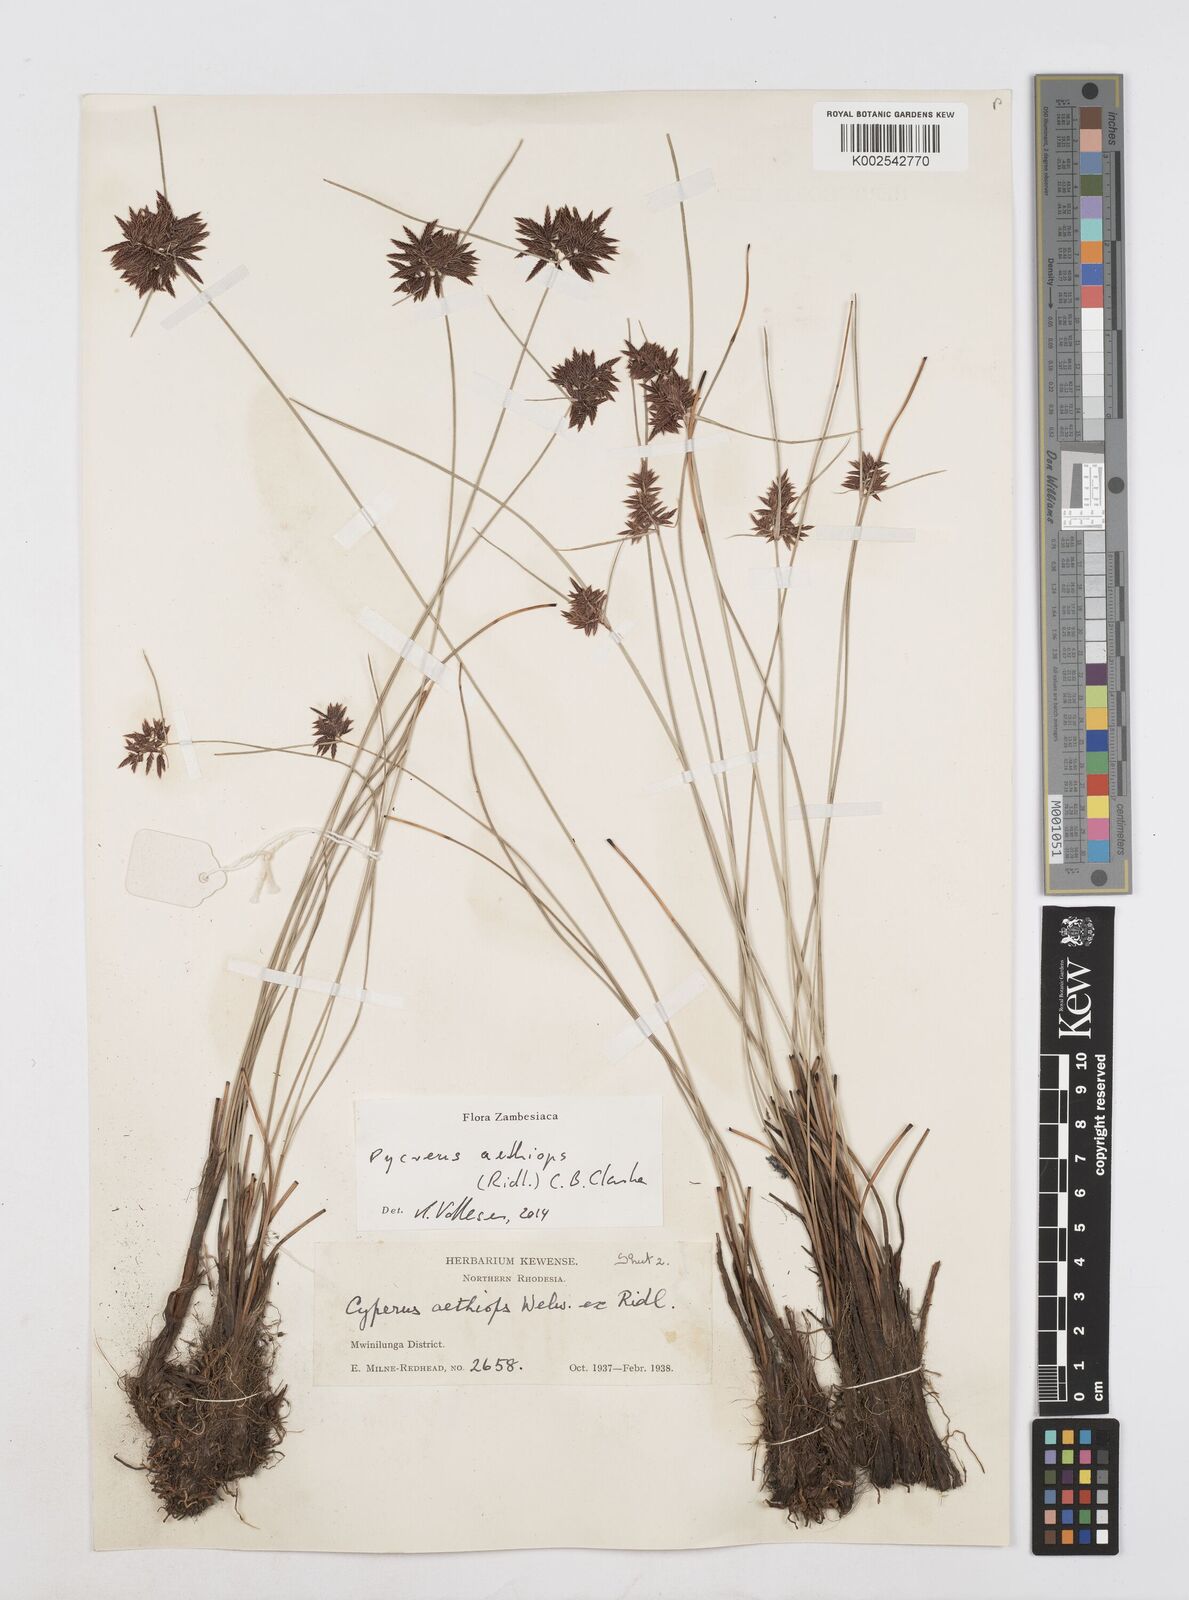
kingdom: Plantae
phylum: Tracheophyta
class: Liliopsida
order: Poales
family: Cyperaceae
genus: Cyperus
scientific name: Cyperus aethiops
